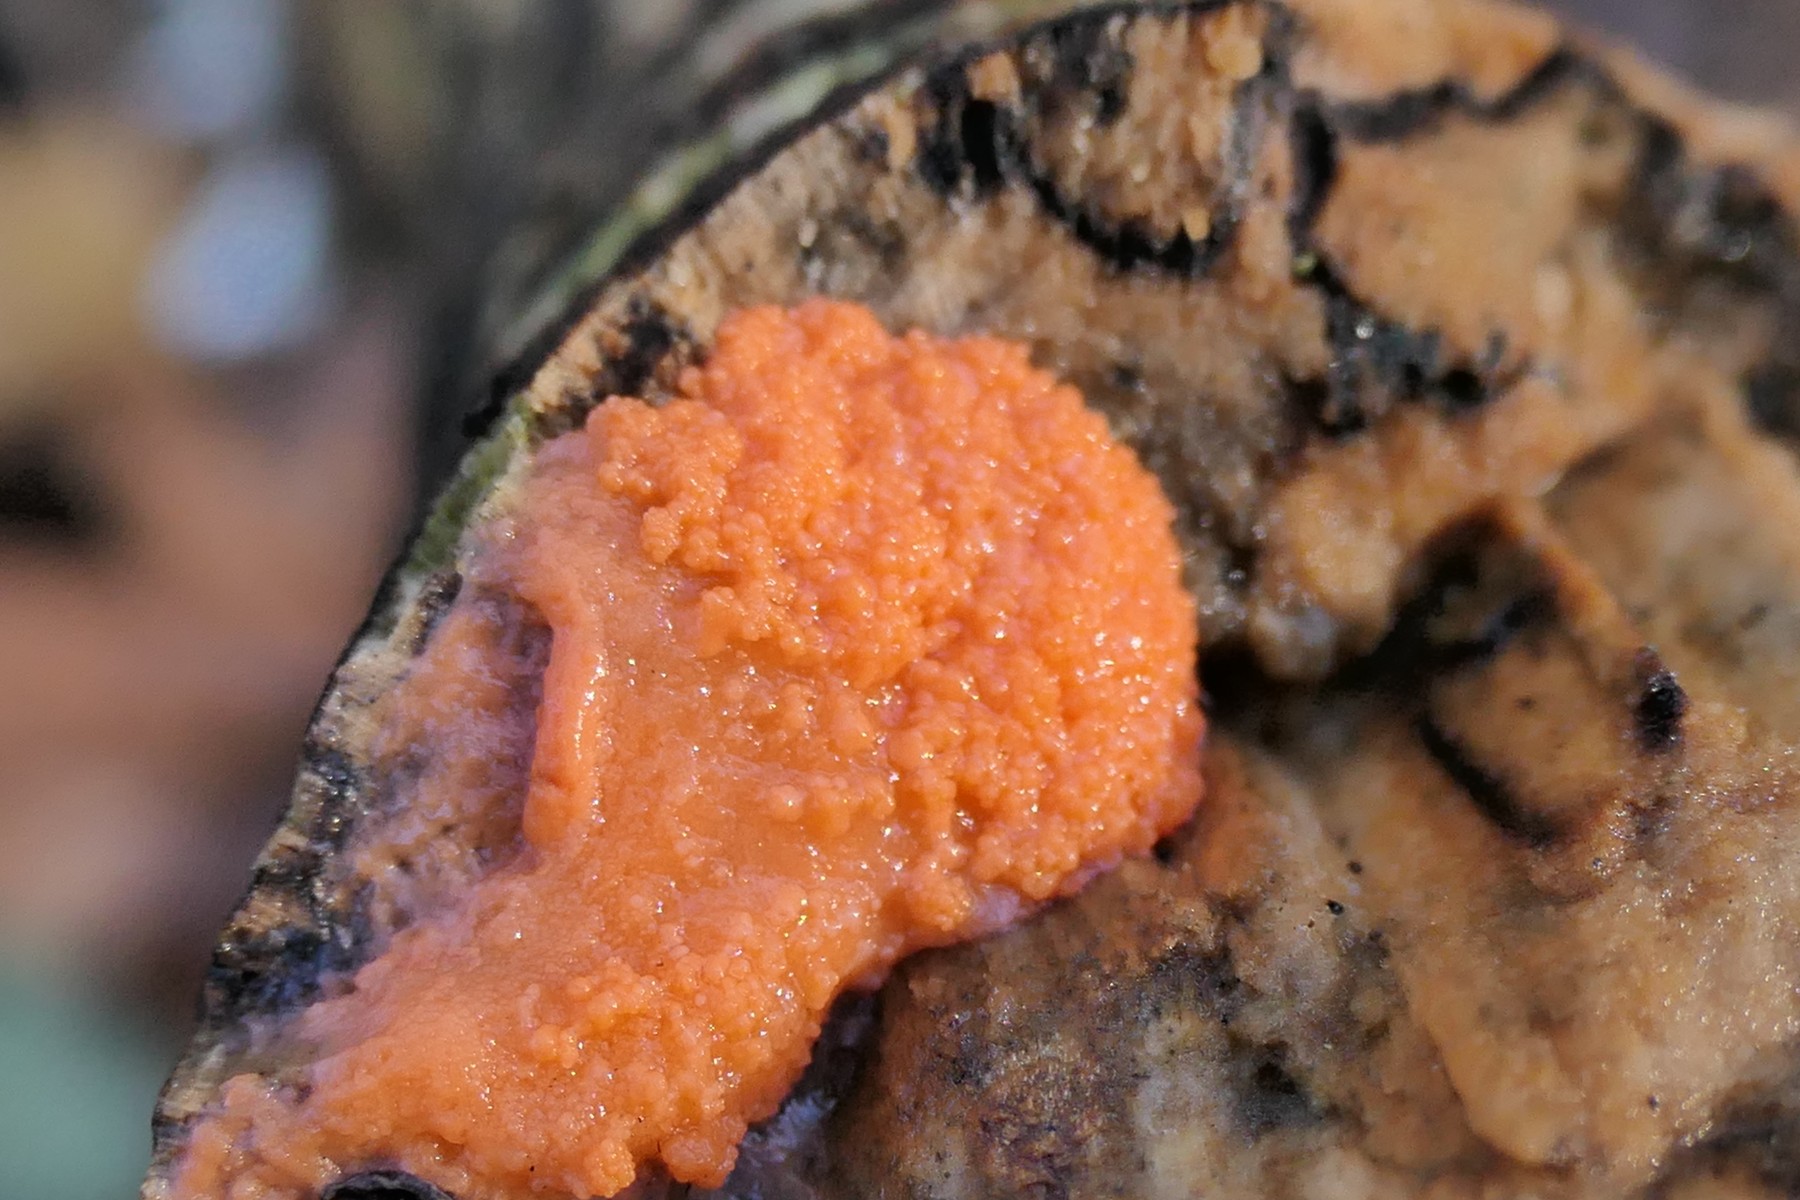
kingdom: Protozoa
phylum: Mycetozoa
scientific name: Mycetozoa
